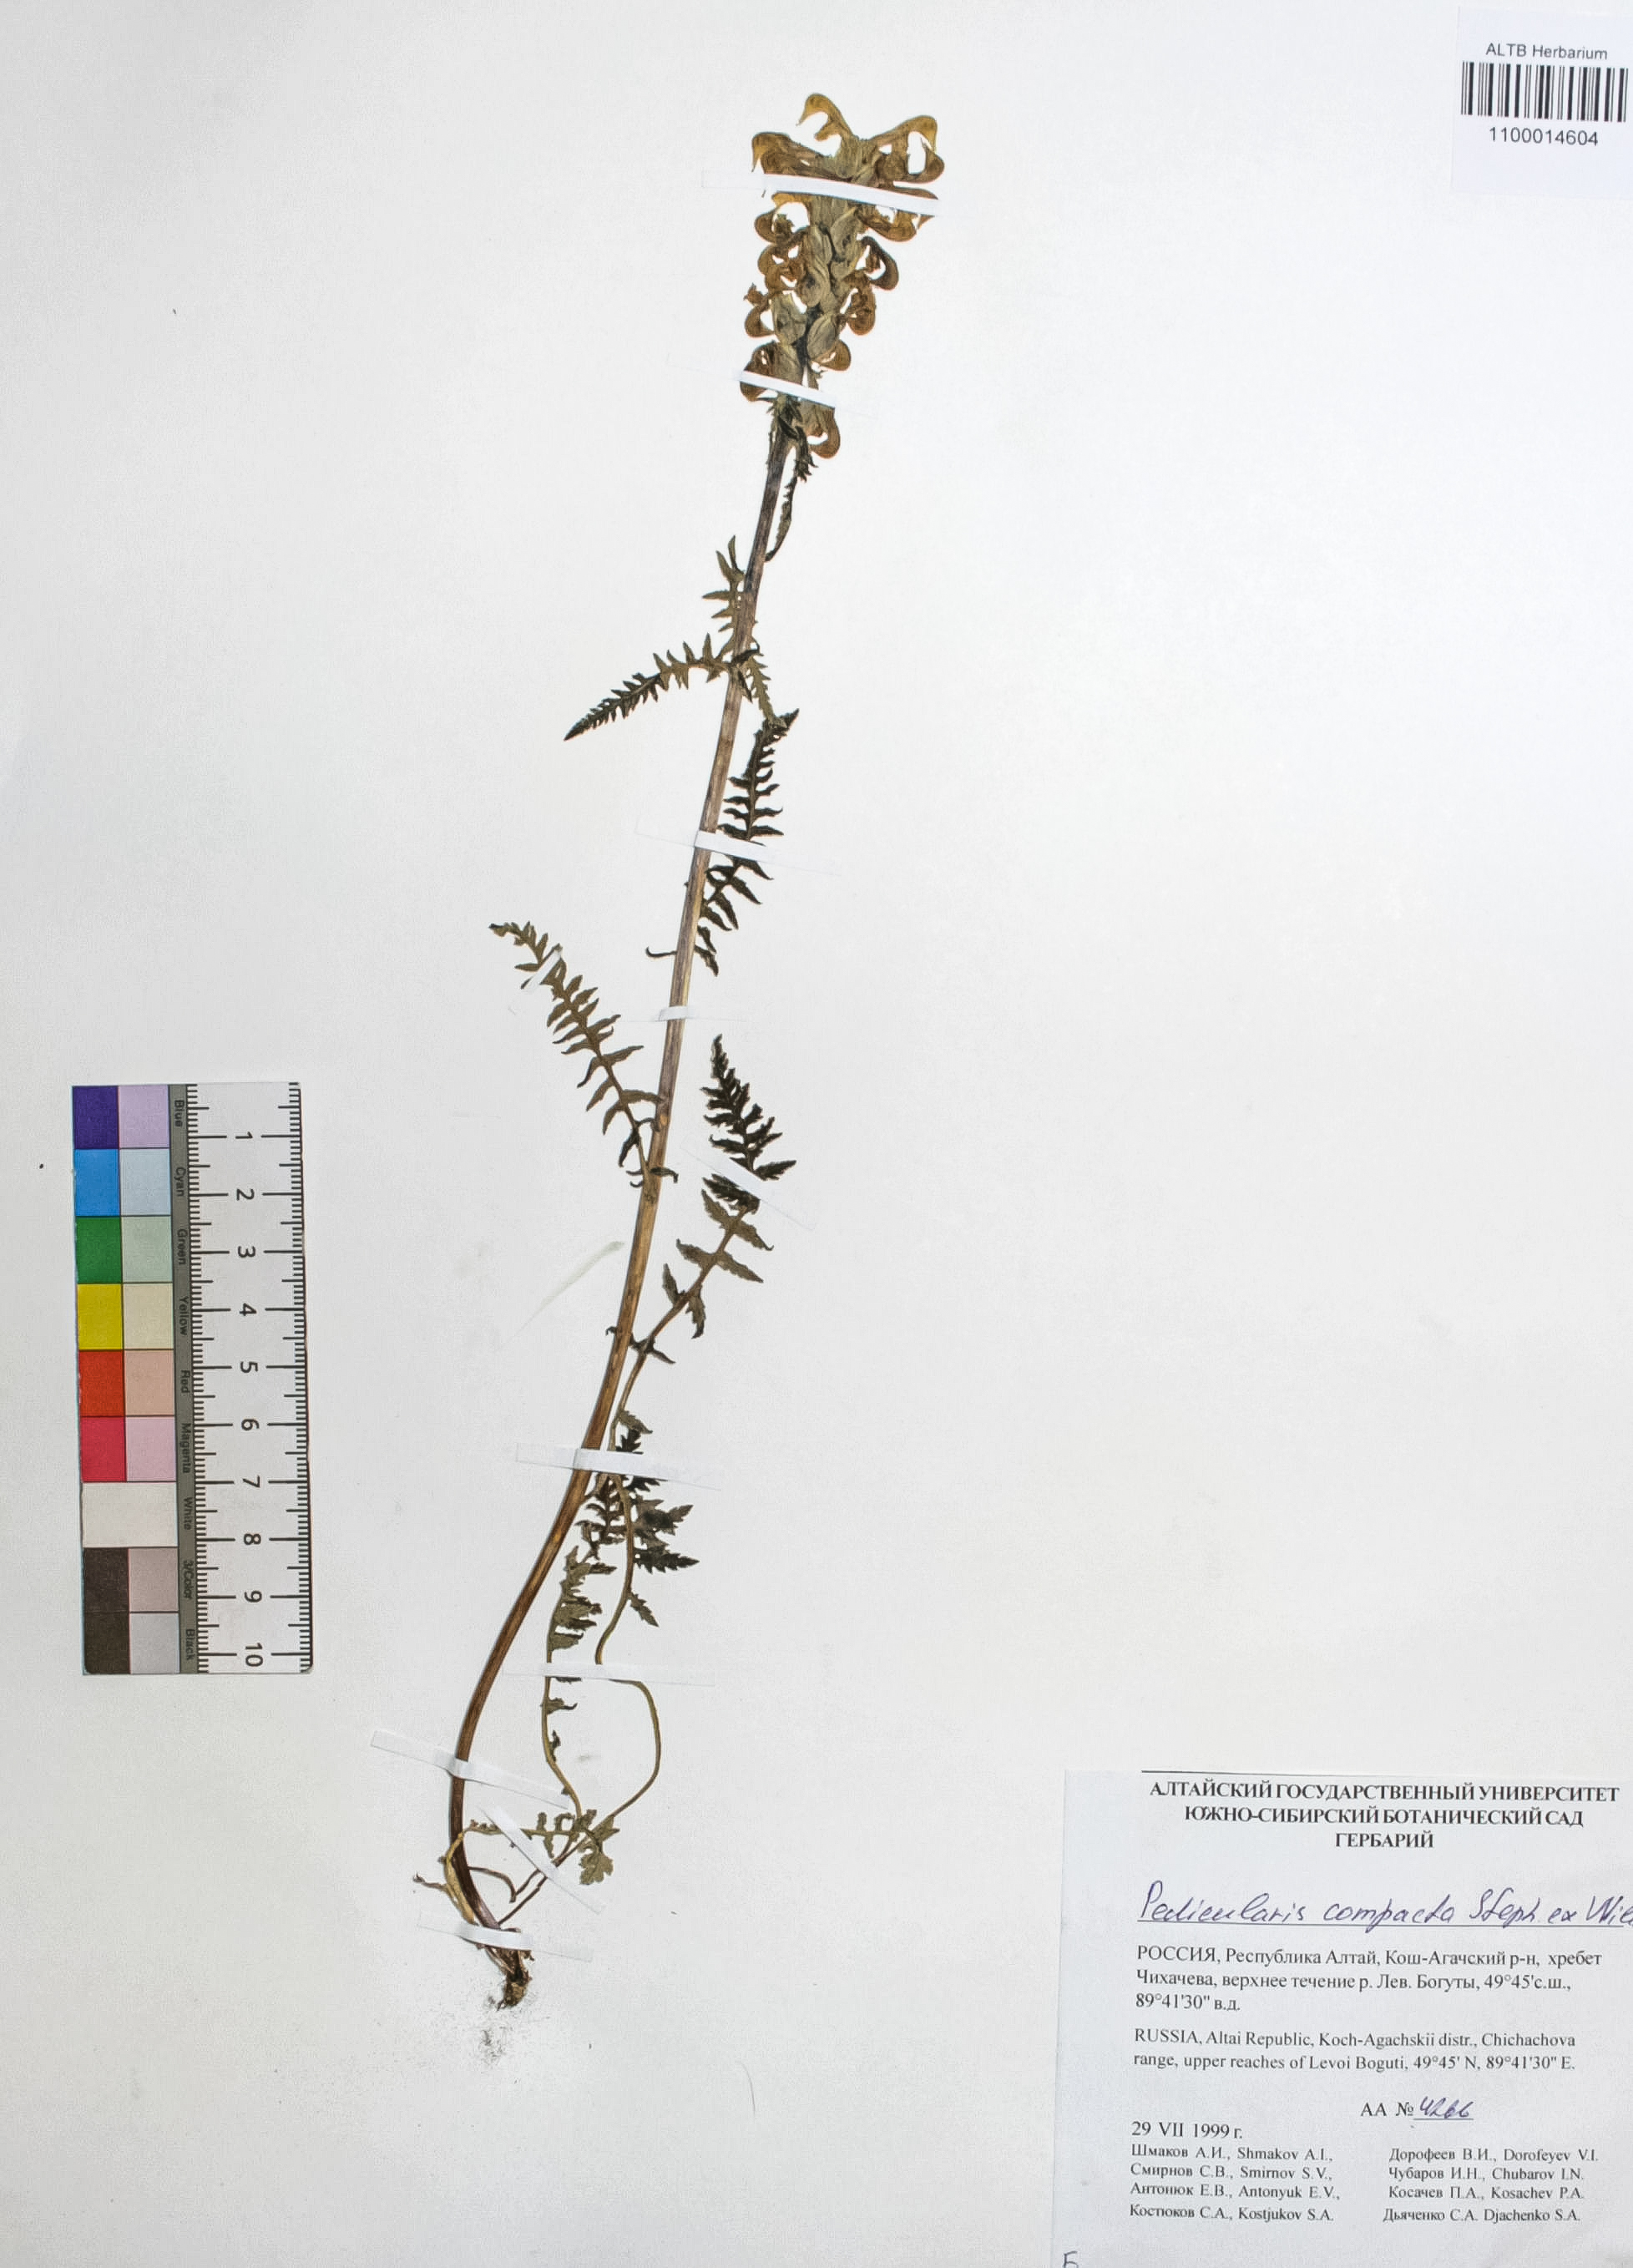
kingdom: Plantae
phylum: Tracheophyta
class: Magnoliopsida
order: Lamiales
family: Orobanchaceae
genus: Pedicularis
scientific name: Pedicularis compacta
